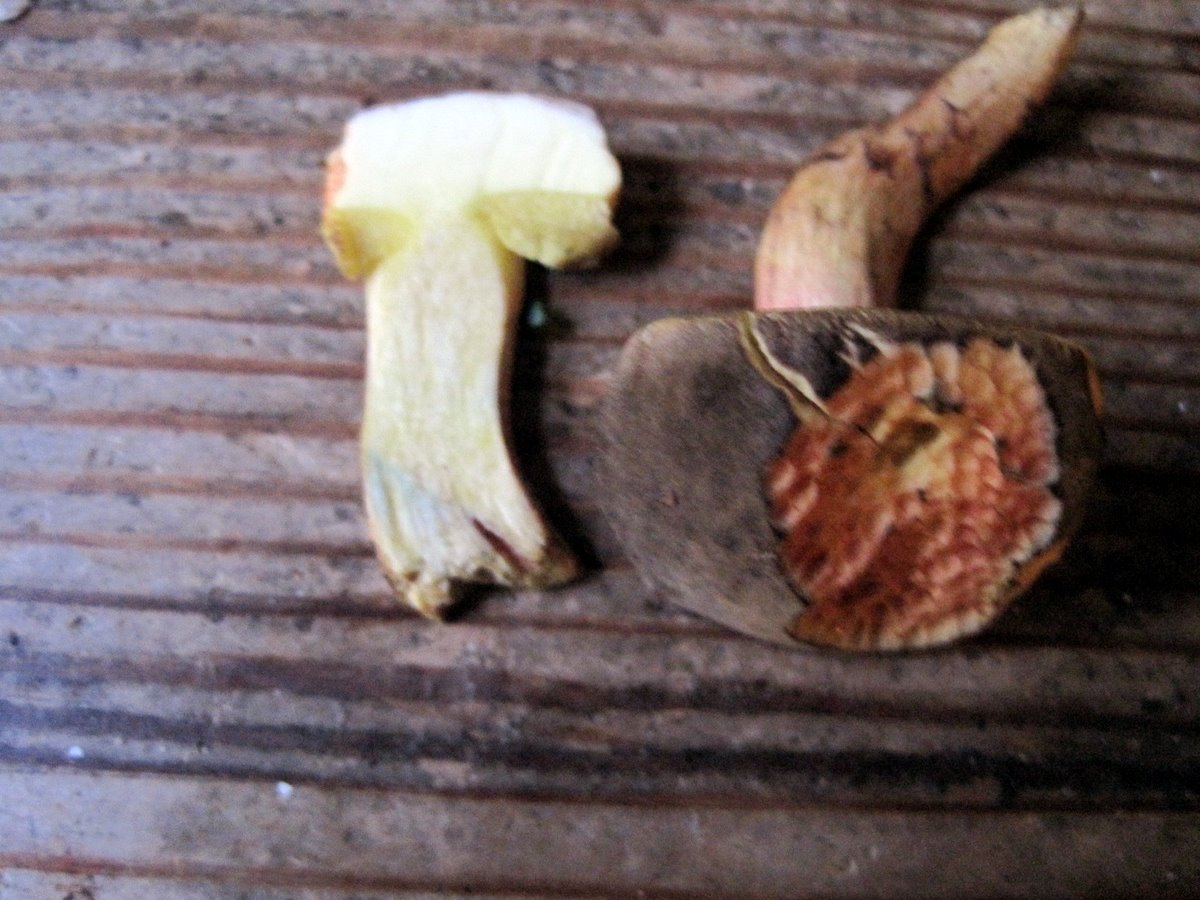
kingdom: Fungi
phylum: Basidiomycota
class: Agaricomycetes
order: Boletales
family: Boletaceae
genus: Xerocomellus
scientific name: Xerocomellus chrysenteron
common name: rødsprukken rørhat
